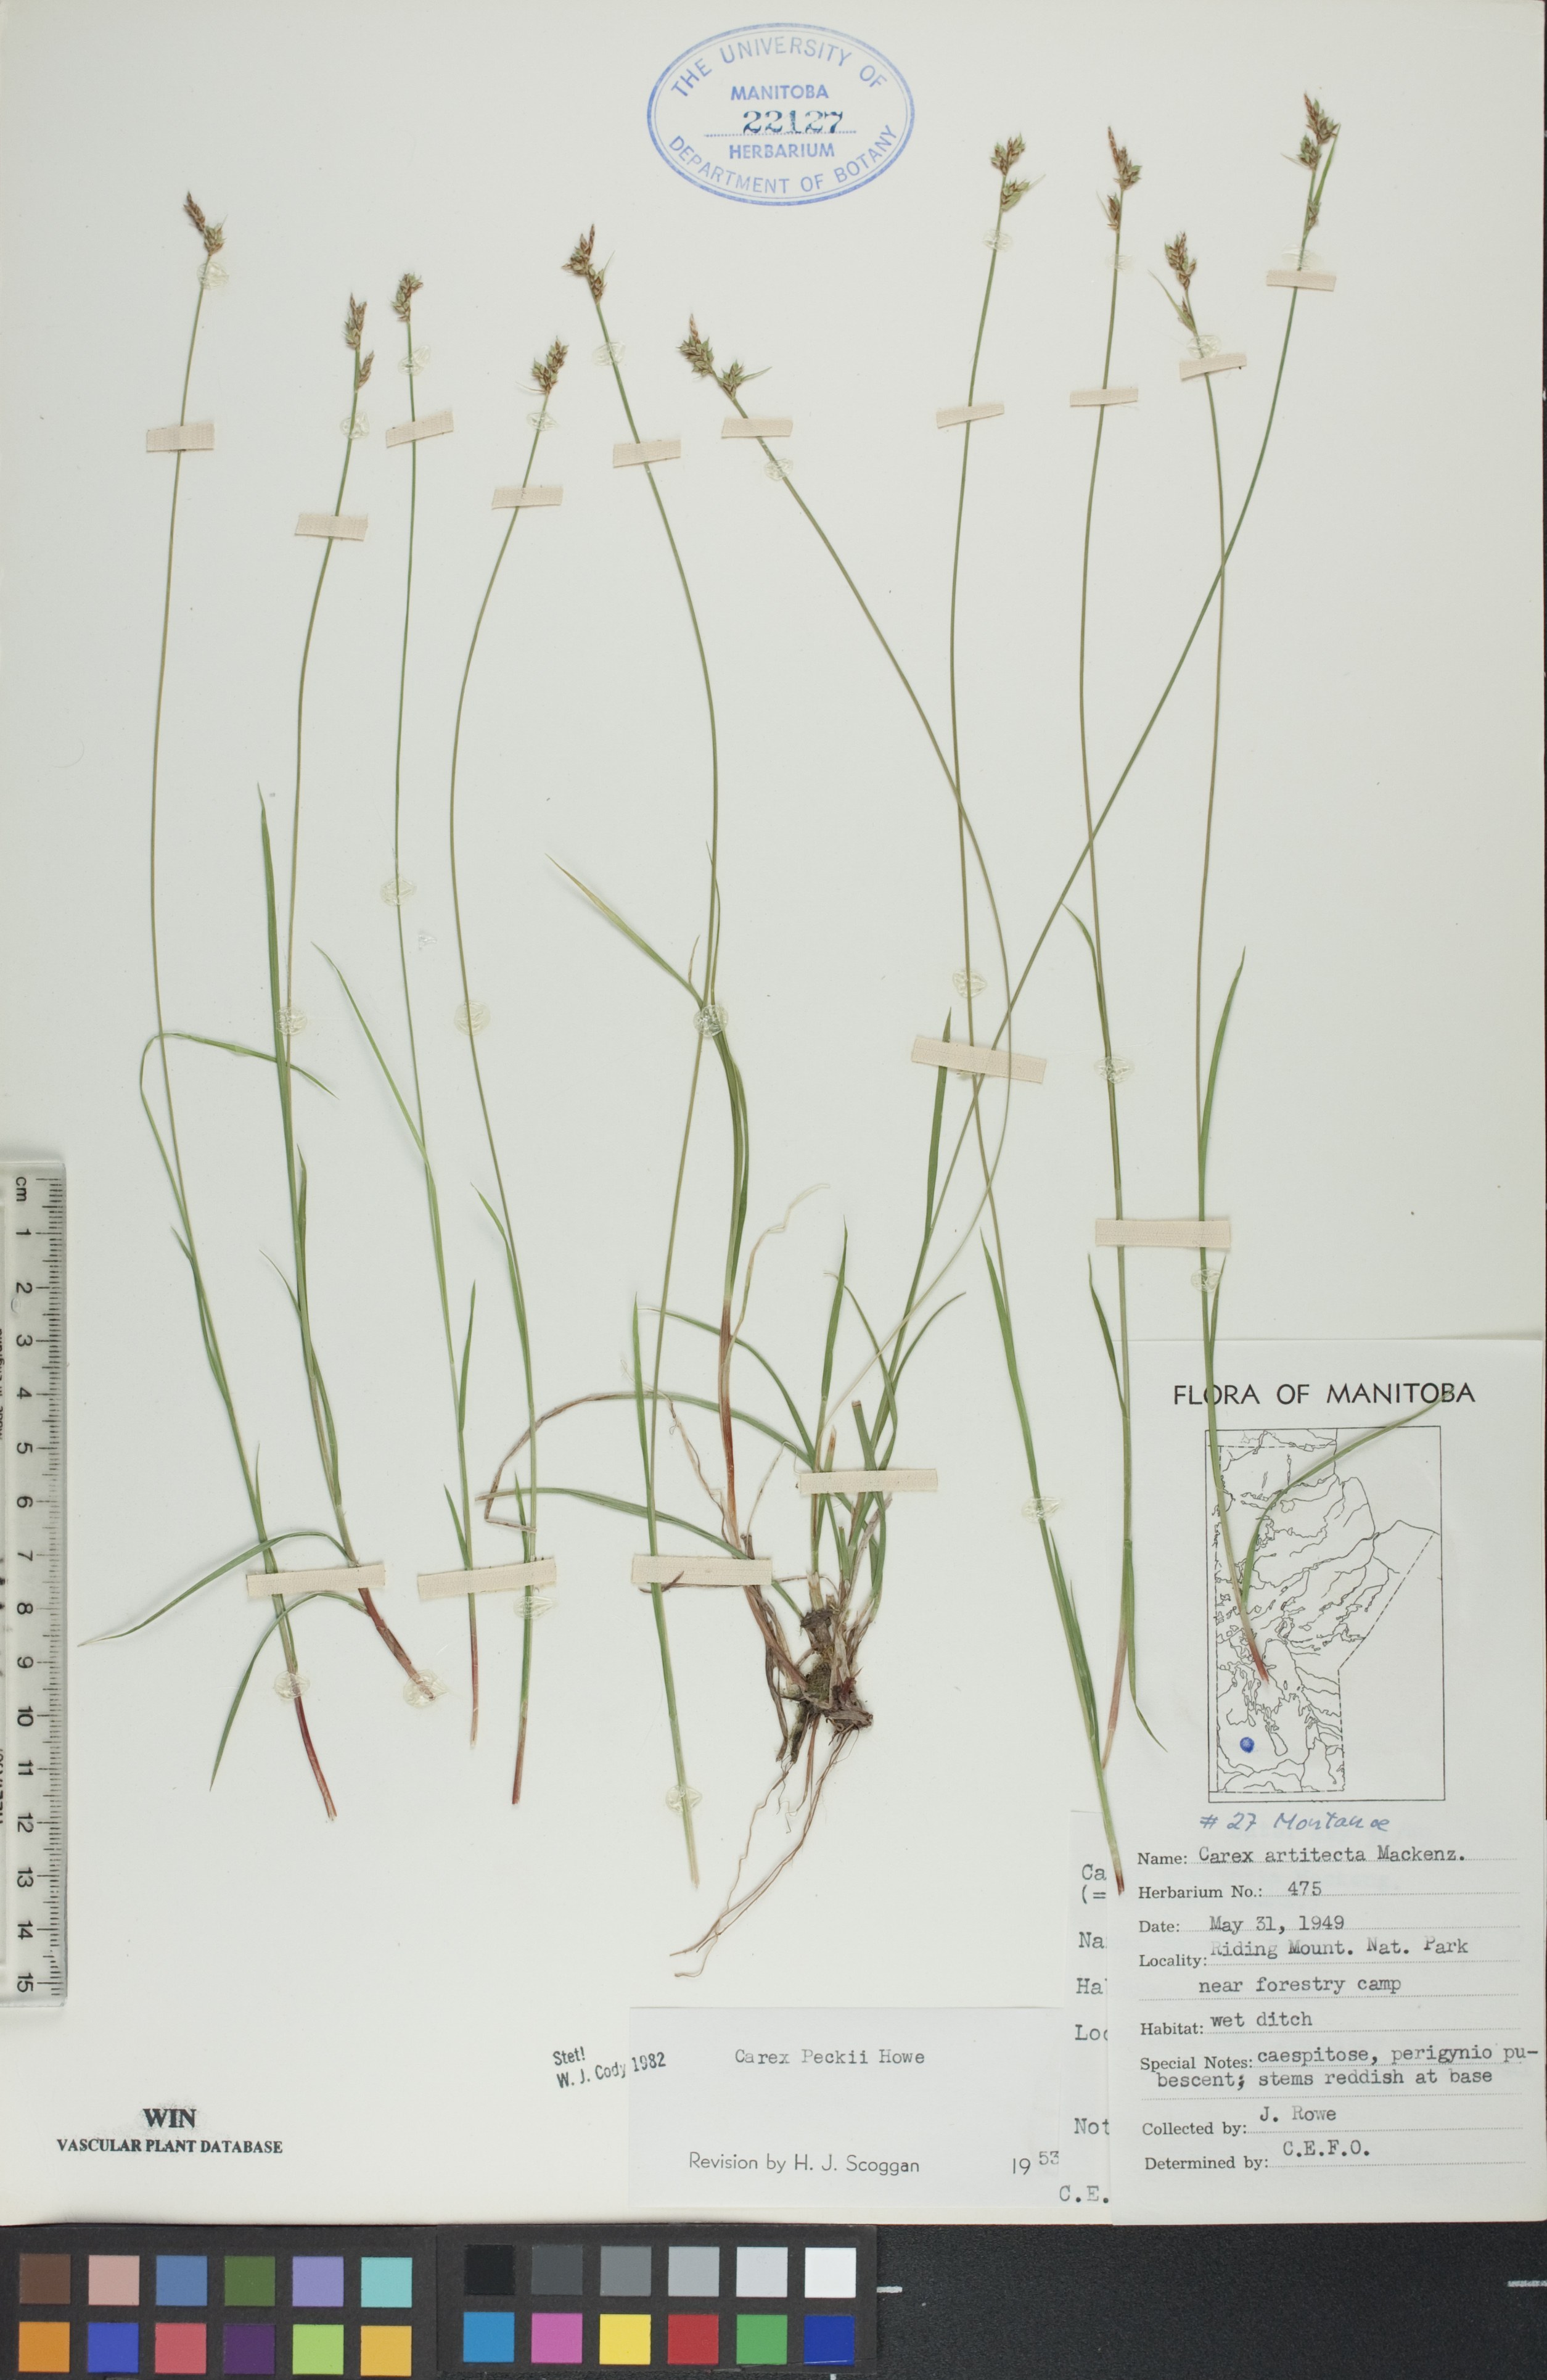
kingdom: Plantae
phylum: Tracheophyta
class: Liliopsida
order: Poales
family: Cyperaceae
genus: Carex
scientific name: Carex peckii
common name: Peck's oak sedge
